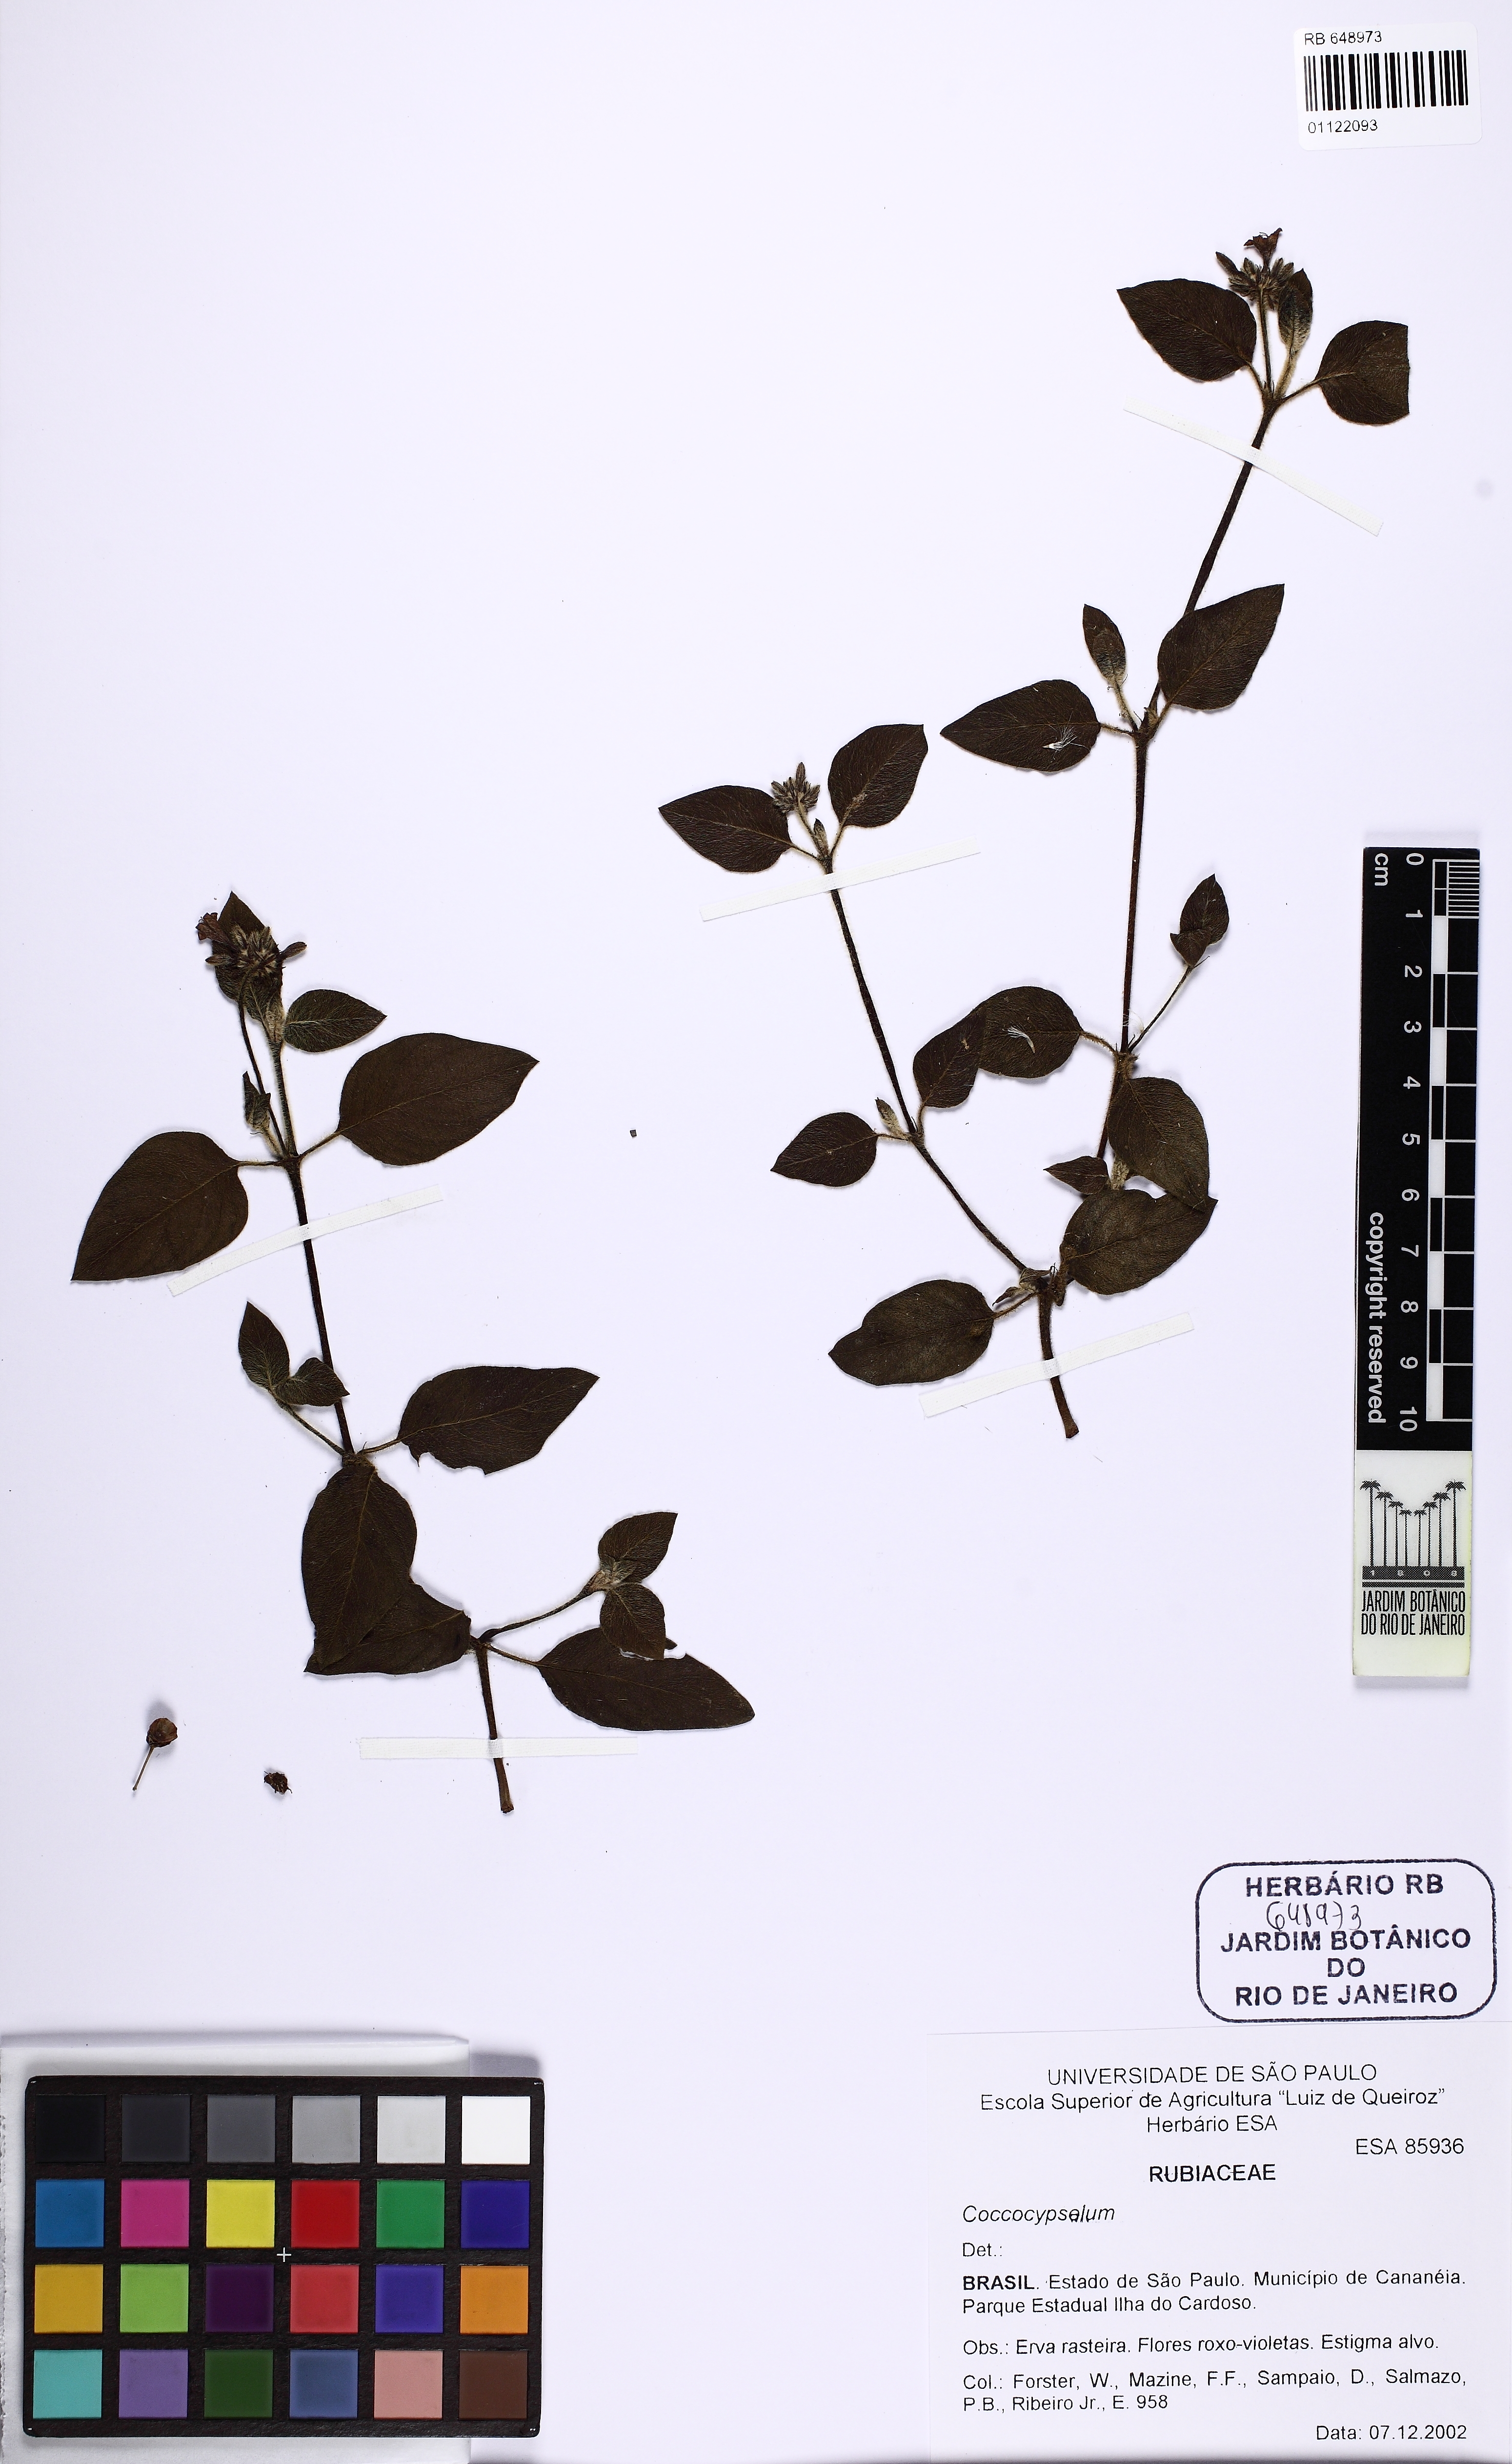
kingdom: Plantae
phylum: Tracheophyta
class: Magnoliopsida
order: Gentianales
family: Rubiaceae
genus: Coccocypselum
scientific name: Coccocypselum
